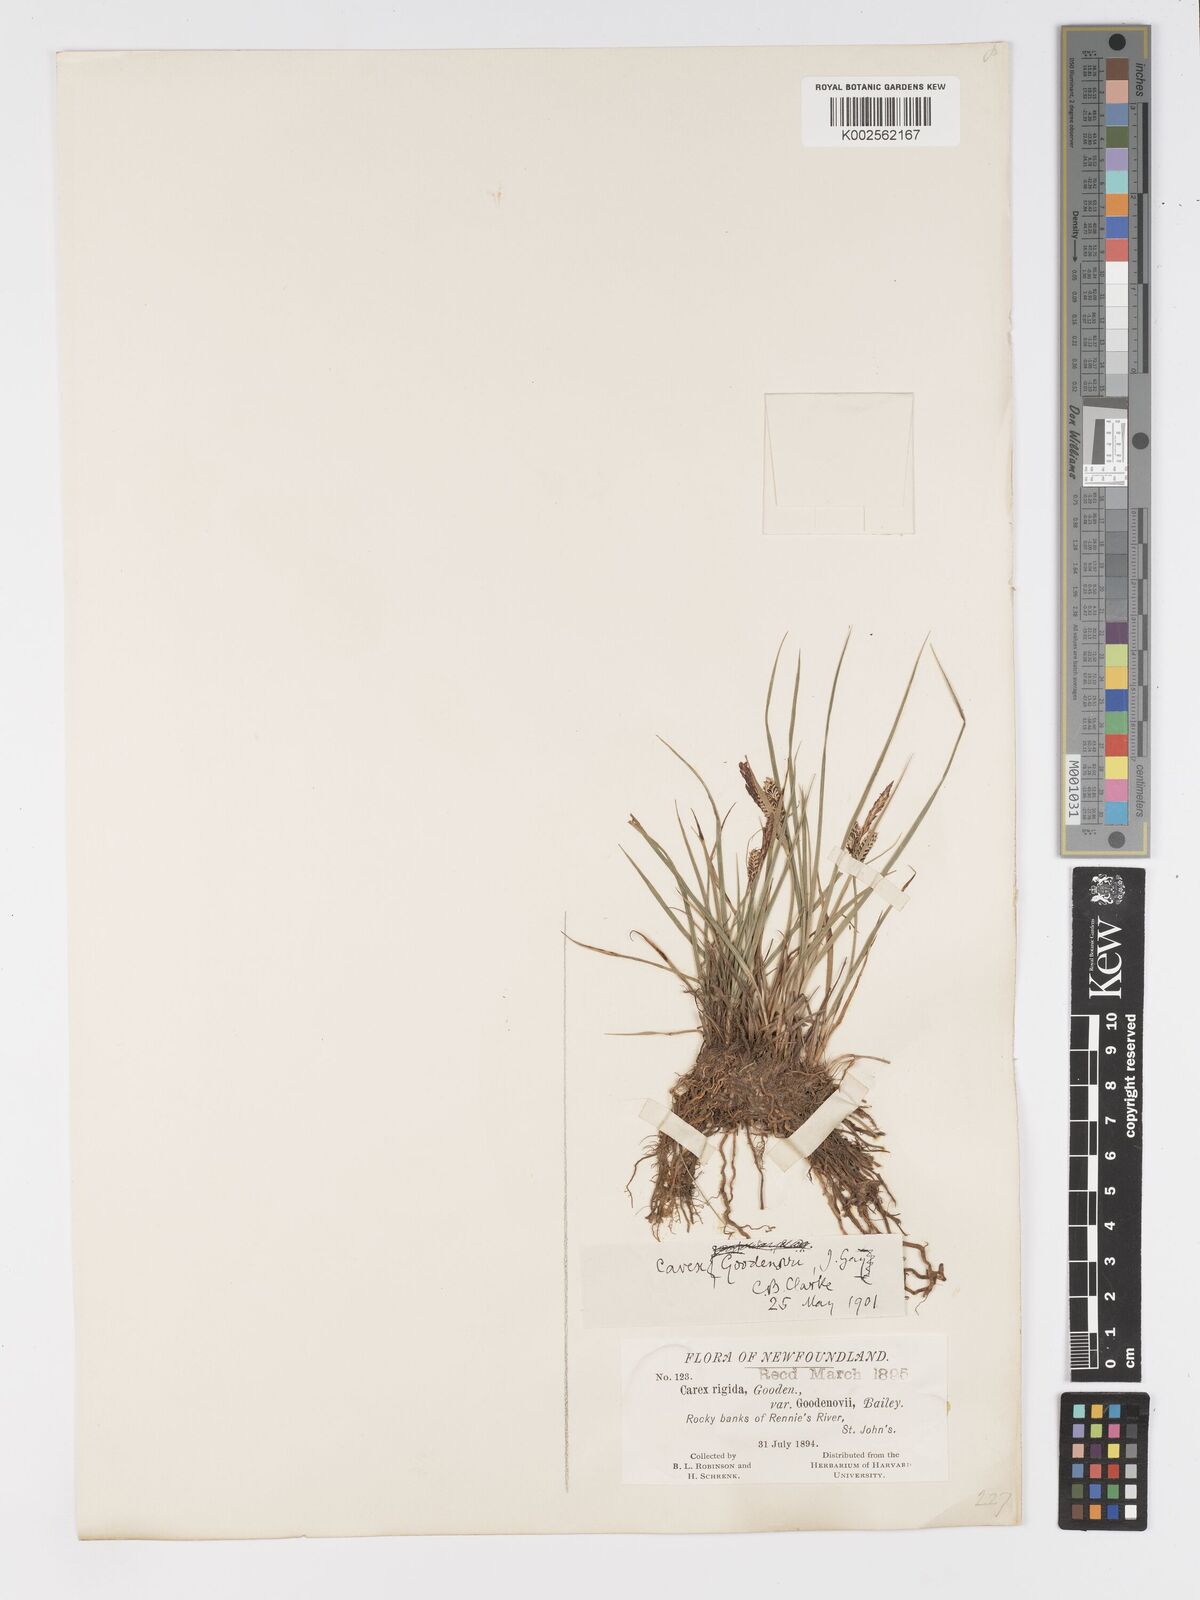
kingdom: Plantae
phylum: Tracheophyta
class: Liliopsida
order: Poales
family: Cyperaceae
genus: Carex
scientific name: Carex nigra
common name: Common sedge
